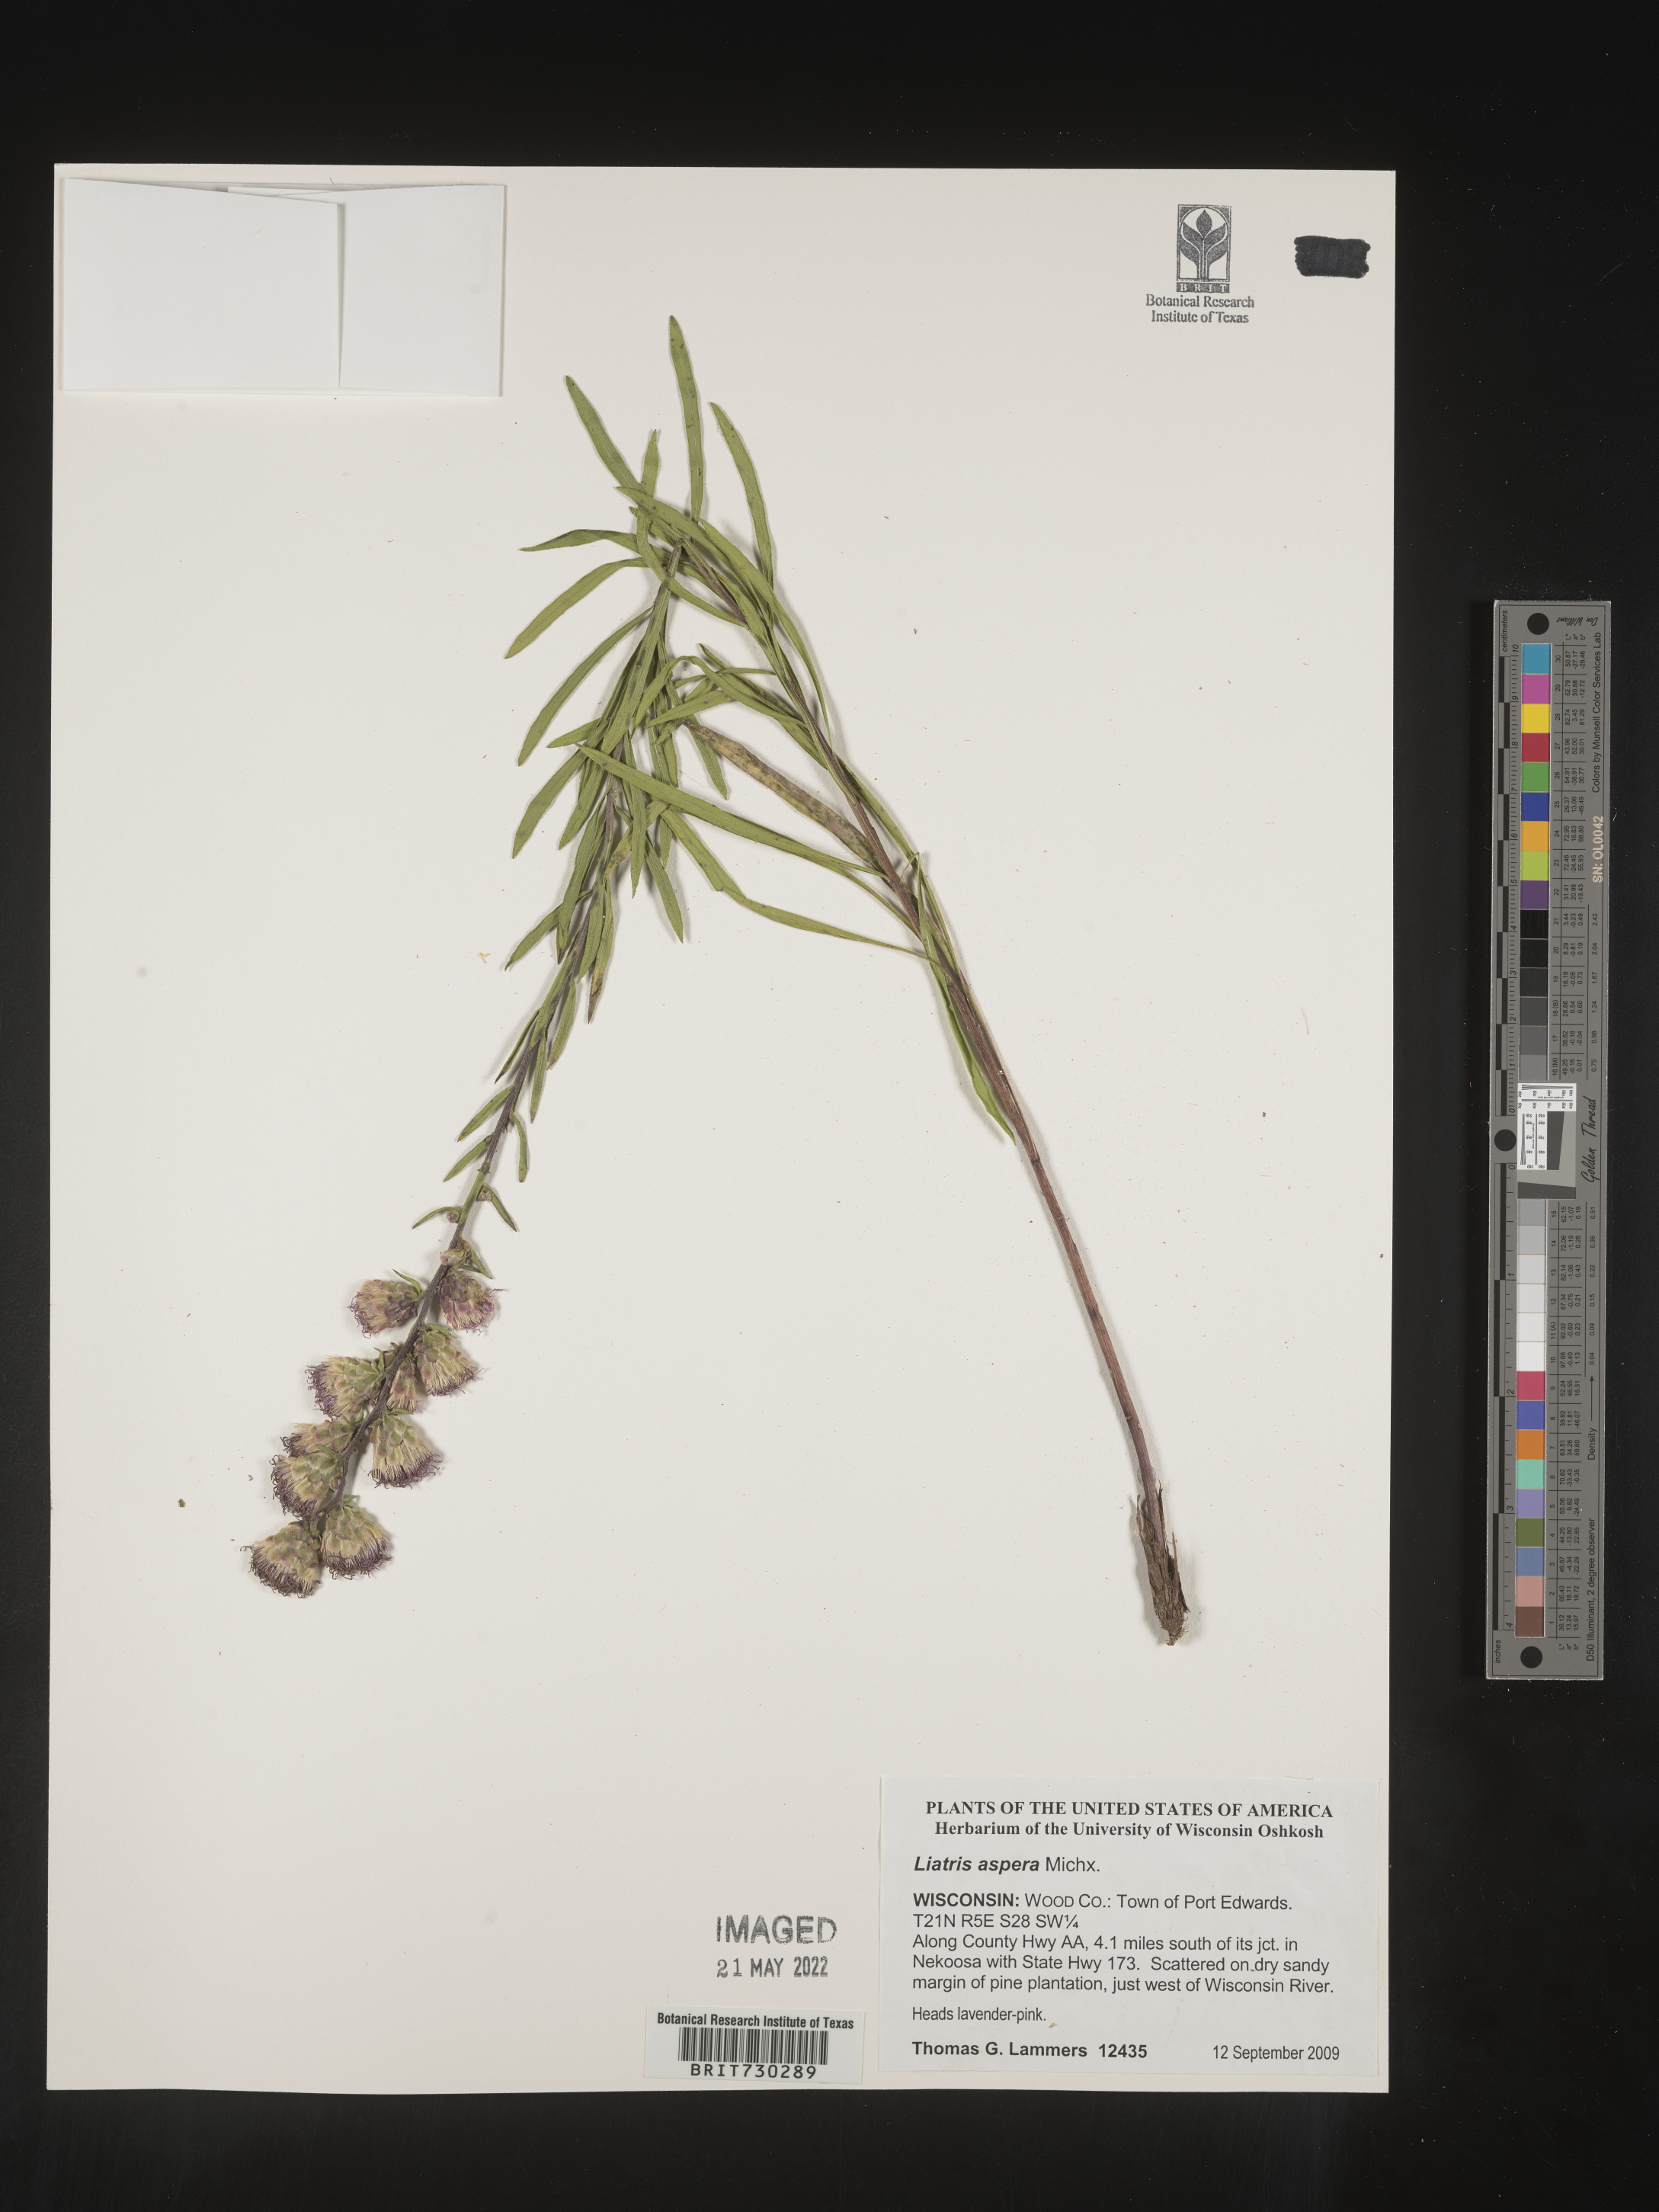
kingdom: Plantae
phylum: Tracheophyta
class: Magnoliopsida
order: Asterales
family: Asteraceae
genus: Liatris
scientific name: Liatris aspera
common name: Lacerate blazing-star
